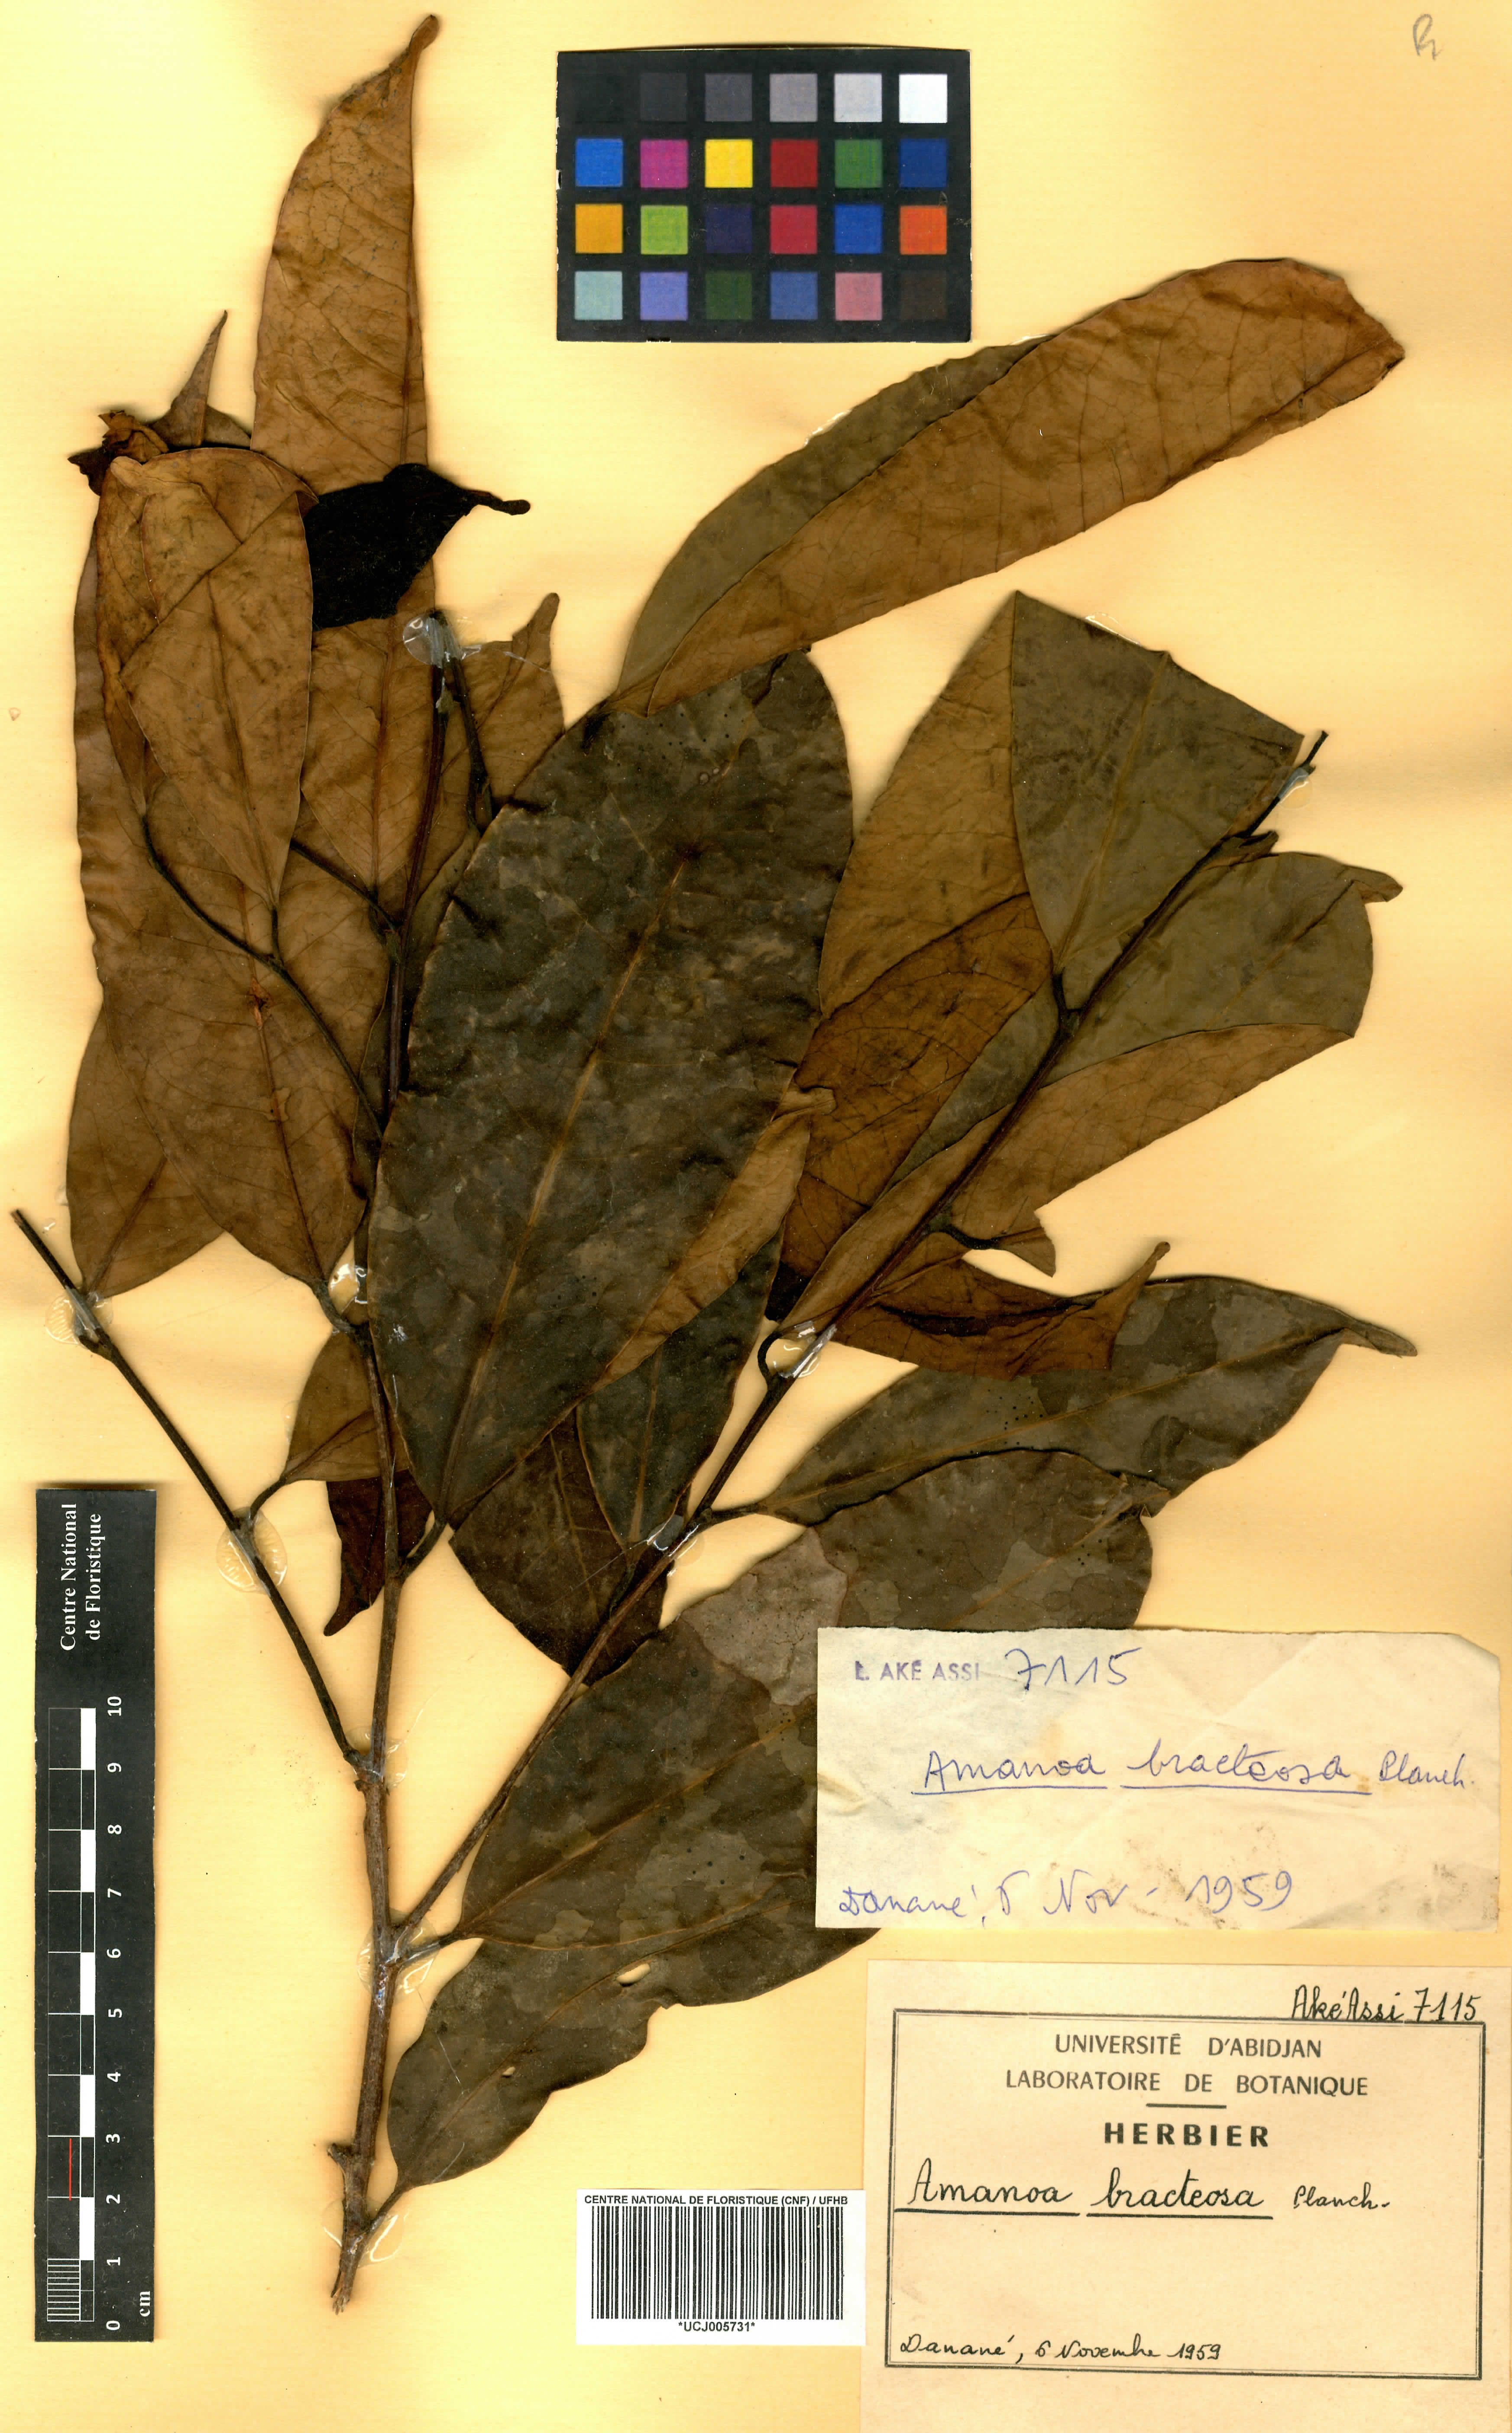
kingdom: Plantae
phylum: Tracheophyta
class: Magnoliopsida
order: Malpighiales
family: Phyllanthaceae
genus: Amanoa
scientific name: Amanoa bracteosa
